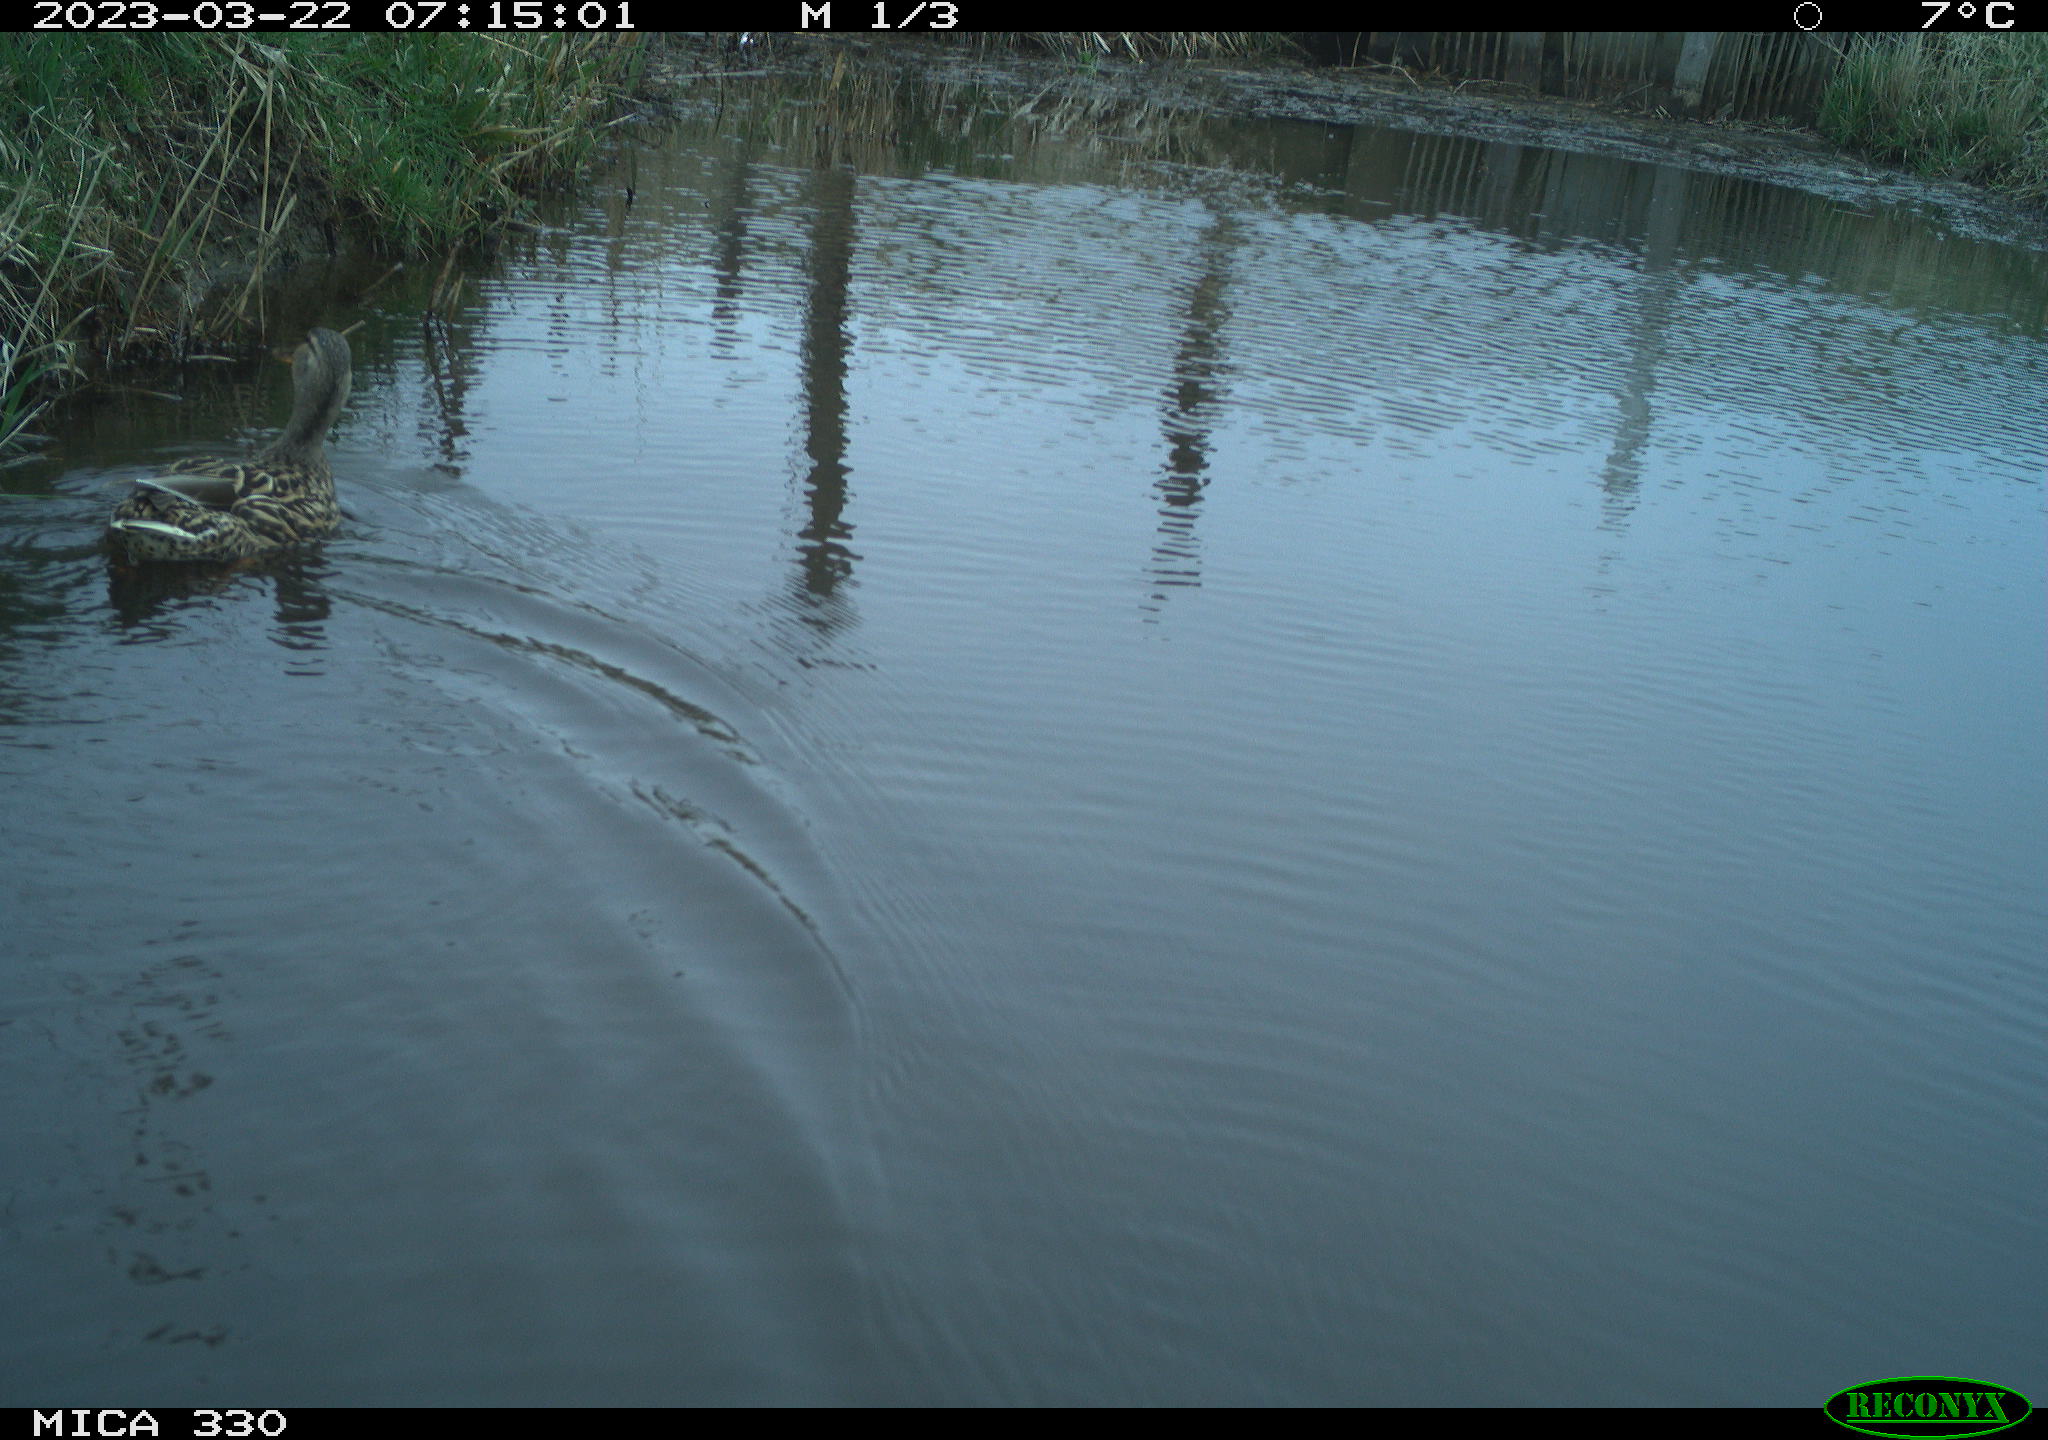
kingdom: Animalia
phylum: Chordata
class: Aves
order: Anseriformes
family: Anatidae
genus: Anas
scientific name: Anas
